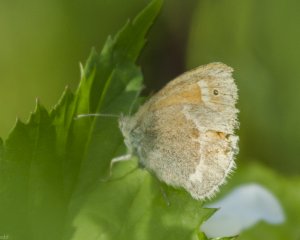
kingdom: Animalia
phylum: Arthropoda
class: Insecta
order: Lepidoptera
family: Nymphalidae
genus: Coenonympha
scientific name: Coenonympha tullia
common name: Large Heath
